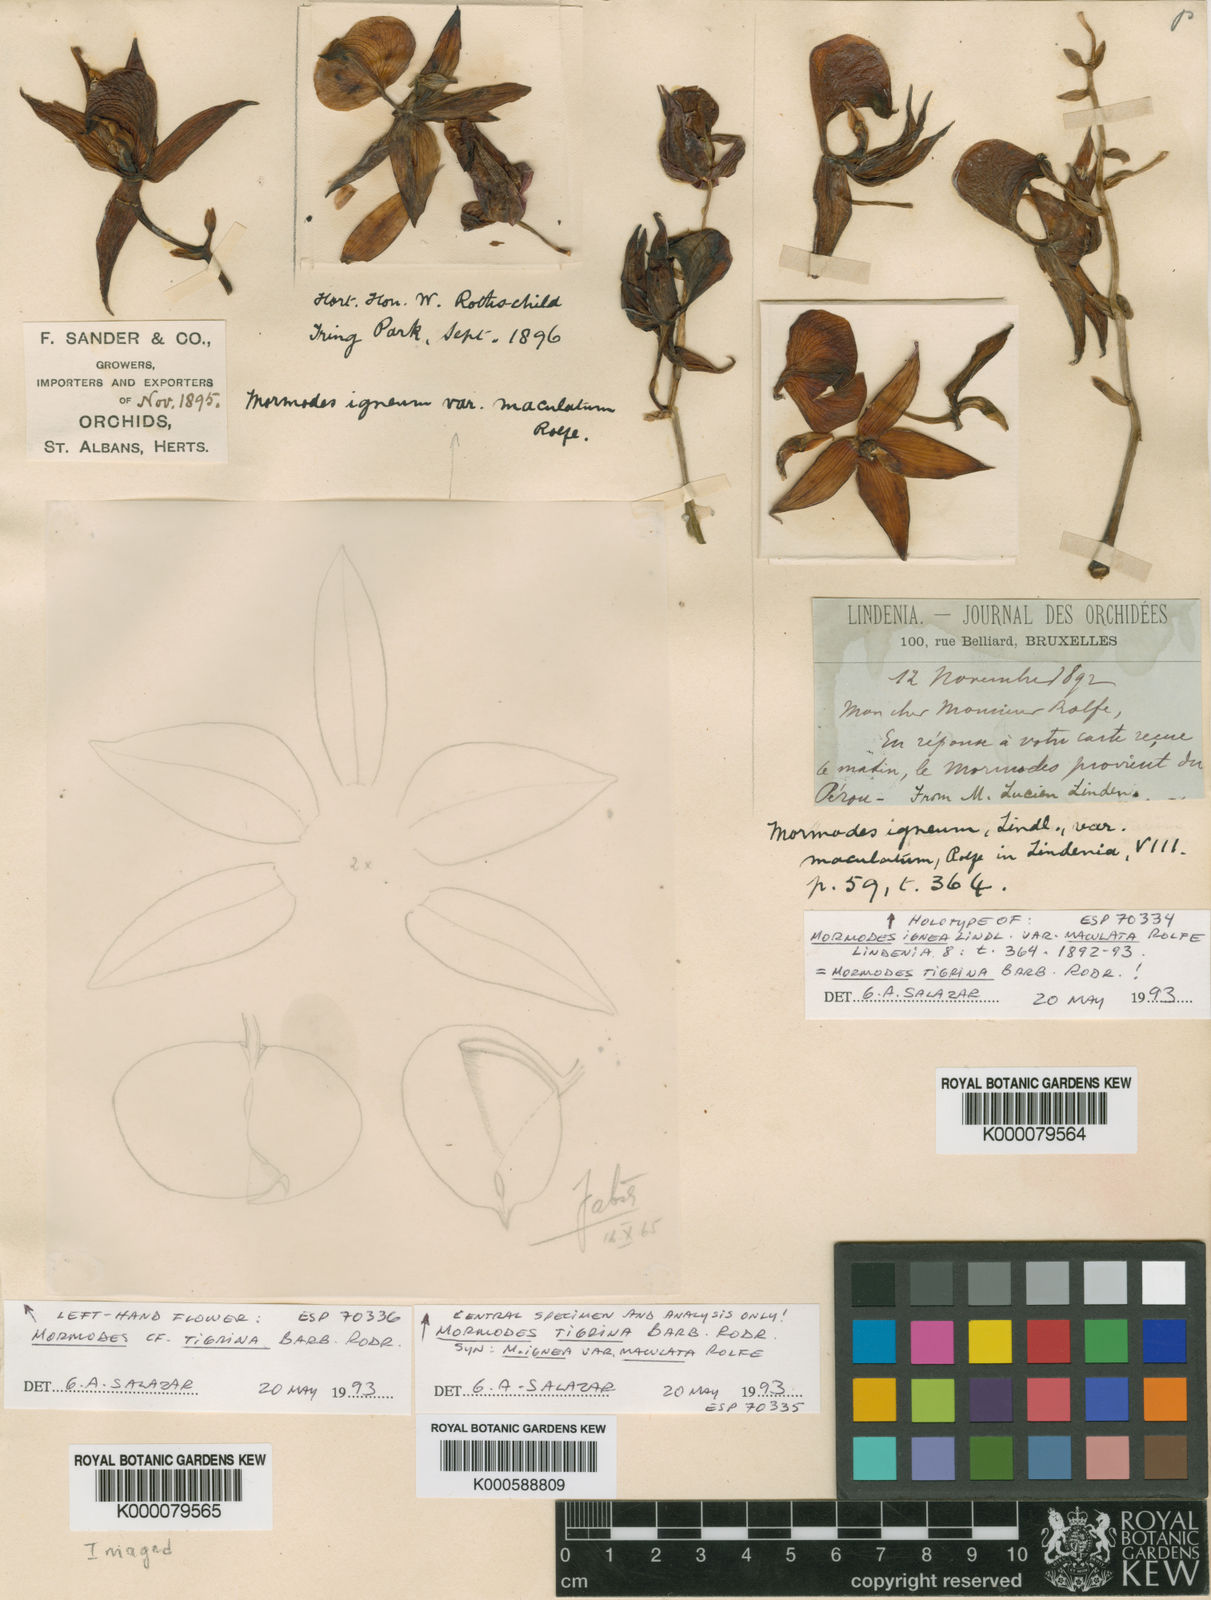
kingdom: Plantae
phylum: Tracheophyta
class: Liliopsida
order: Asparagales
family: Orchidaceae
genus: Mormodes
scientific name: Mormodes ignea
